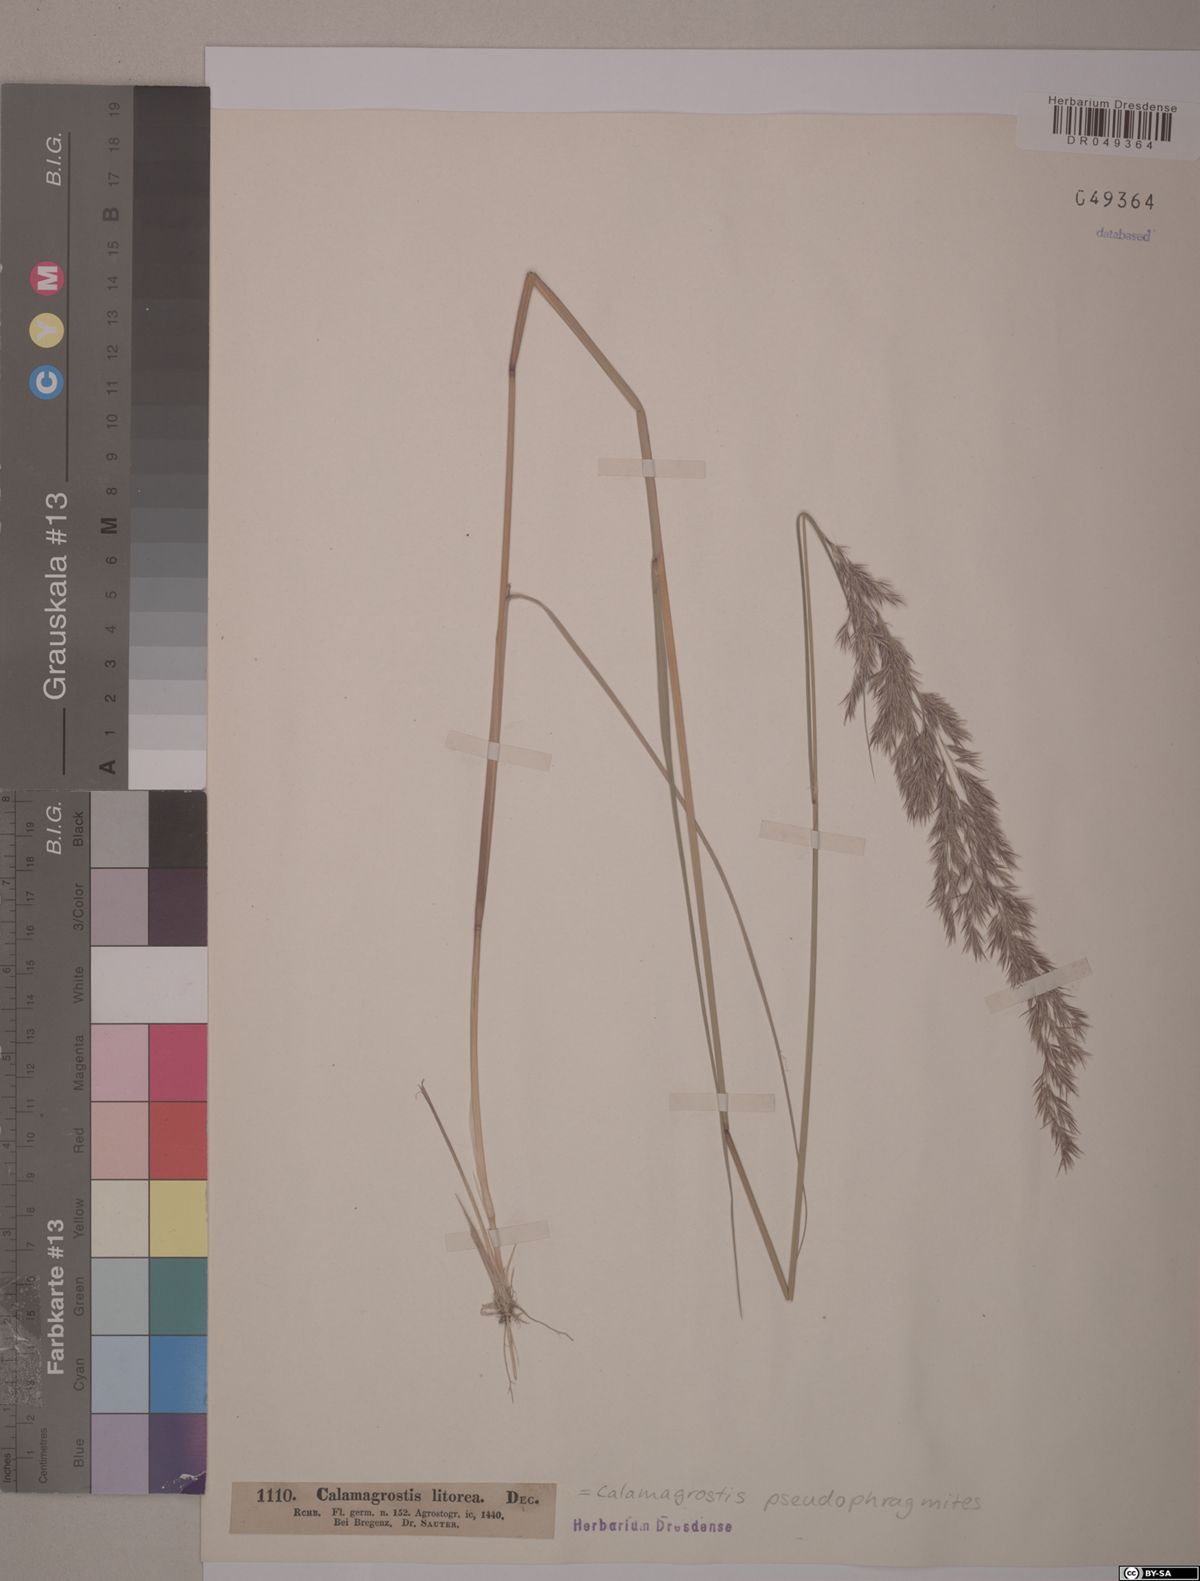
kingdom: Plantae
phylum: Tracheophyta
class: Liliopsida
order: Poales
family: Poaceae
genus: Calamagrostis
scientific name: Calamagrostis pseudophragmites
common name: Coastal small-reed
